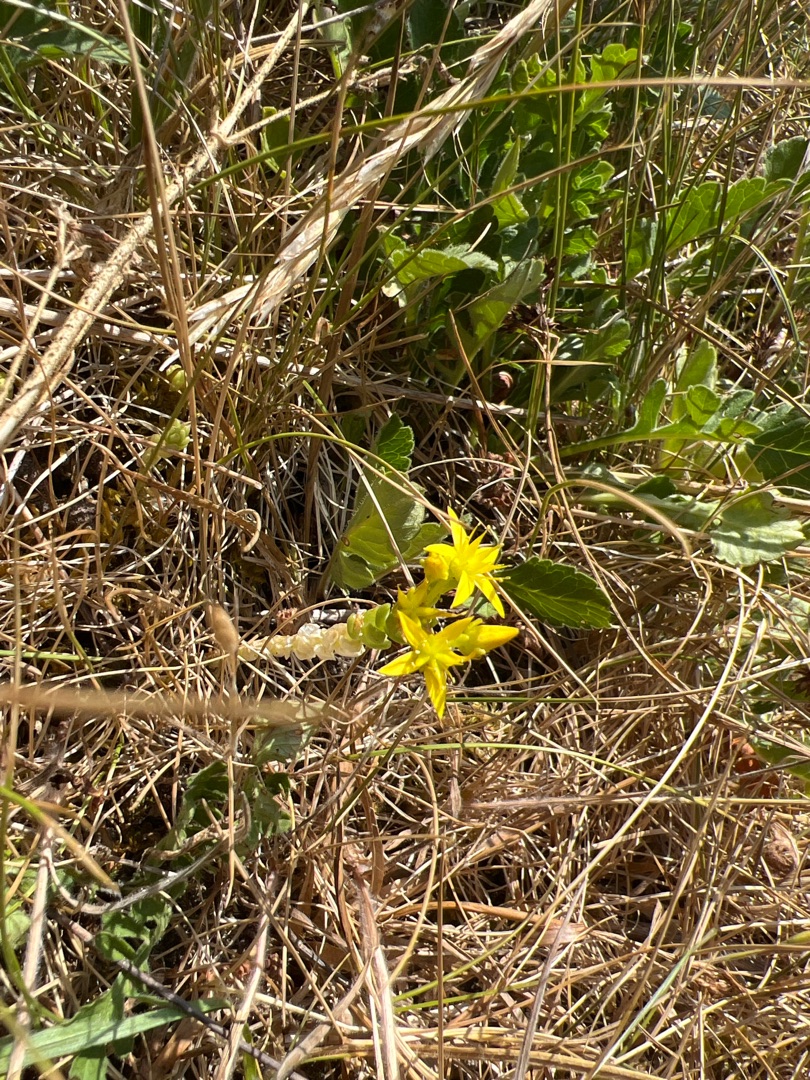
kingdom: Plantae
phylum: Tracheophyta
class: Magnoliopsida
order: Saxifragales
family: Crassulaceae
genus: Sedum
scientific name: Sedum acre
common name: Bidende stenurt
